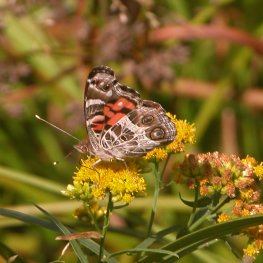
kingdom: Animalia
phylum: Arthropoda
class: Insecta
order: Lepidoptera
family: Nymphalidae
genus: Vanessa
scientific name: Vanessa virginiensis
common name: American Lady
